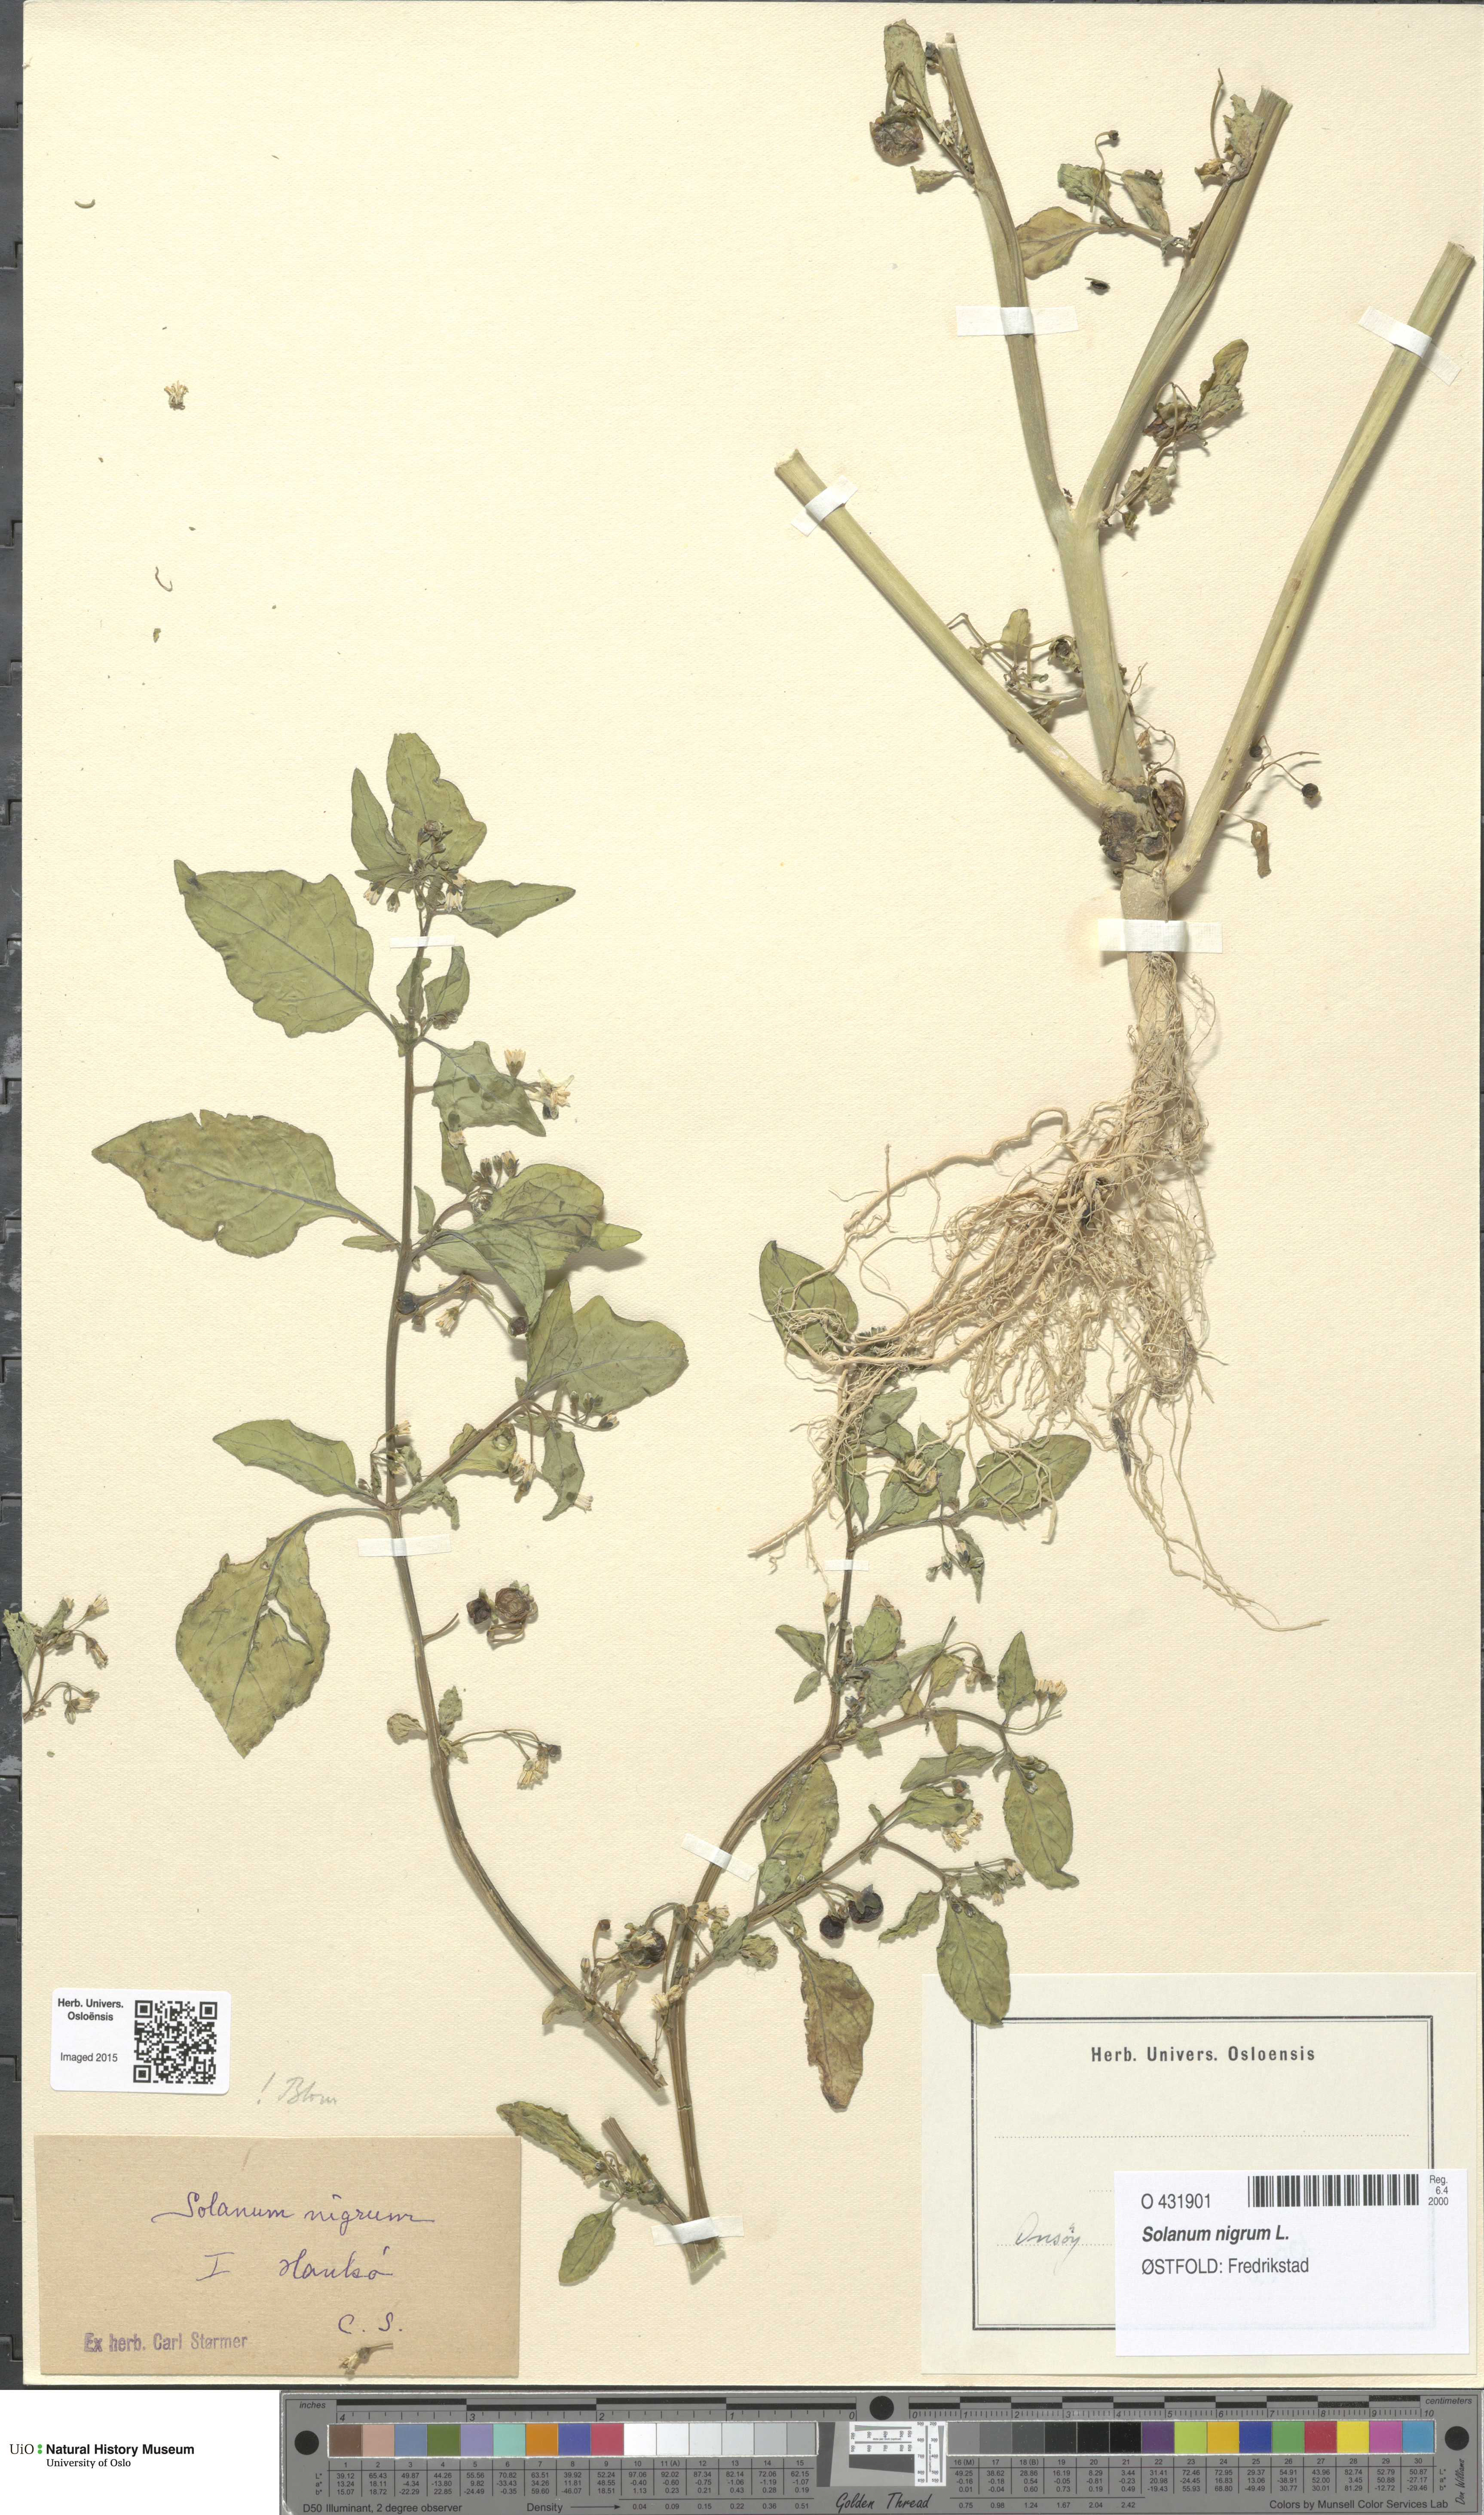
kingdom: Plantae
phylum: Tracheophyta
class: Magnoliopsida
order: Solanales
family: Solanaceae
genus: Solanum
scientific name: Solanum nigrum
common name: Black nightshade
